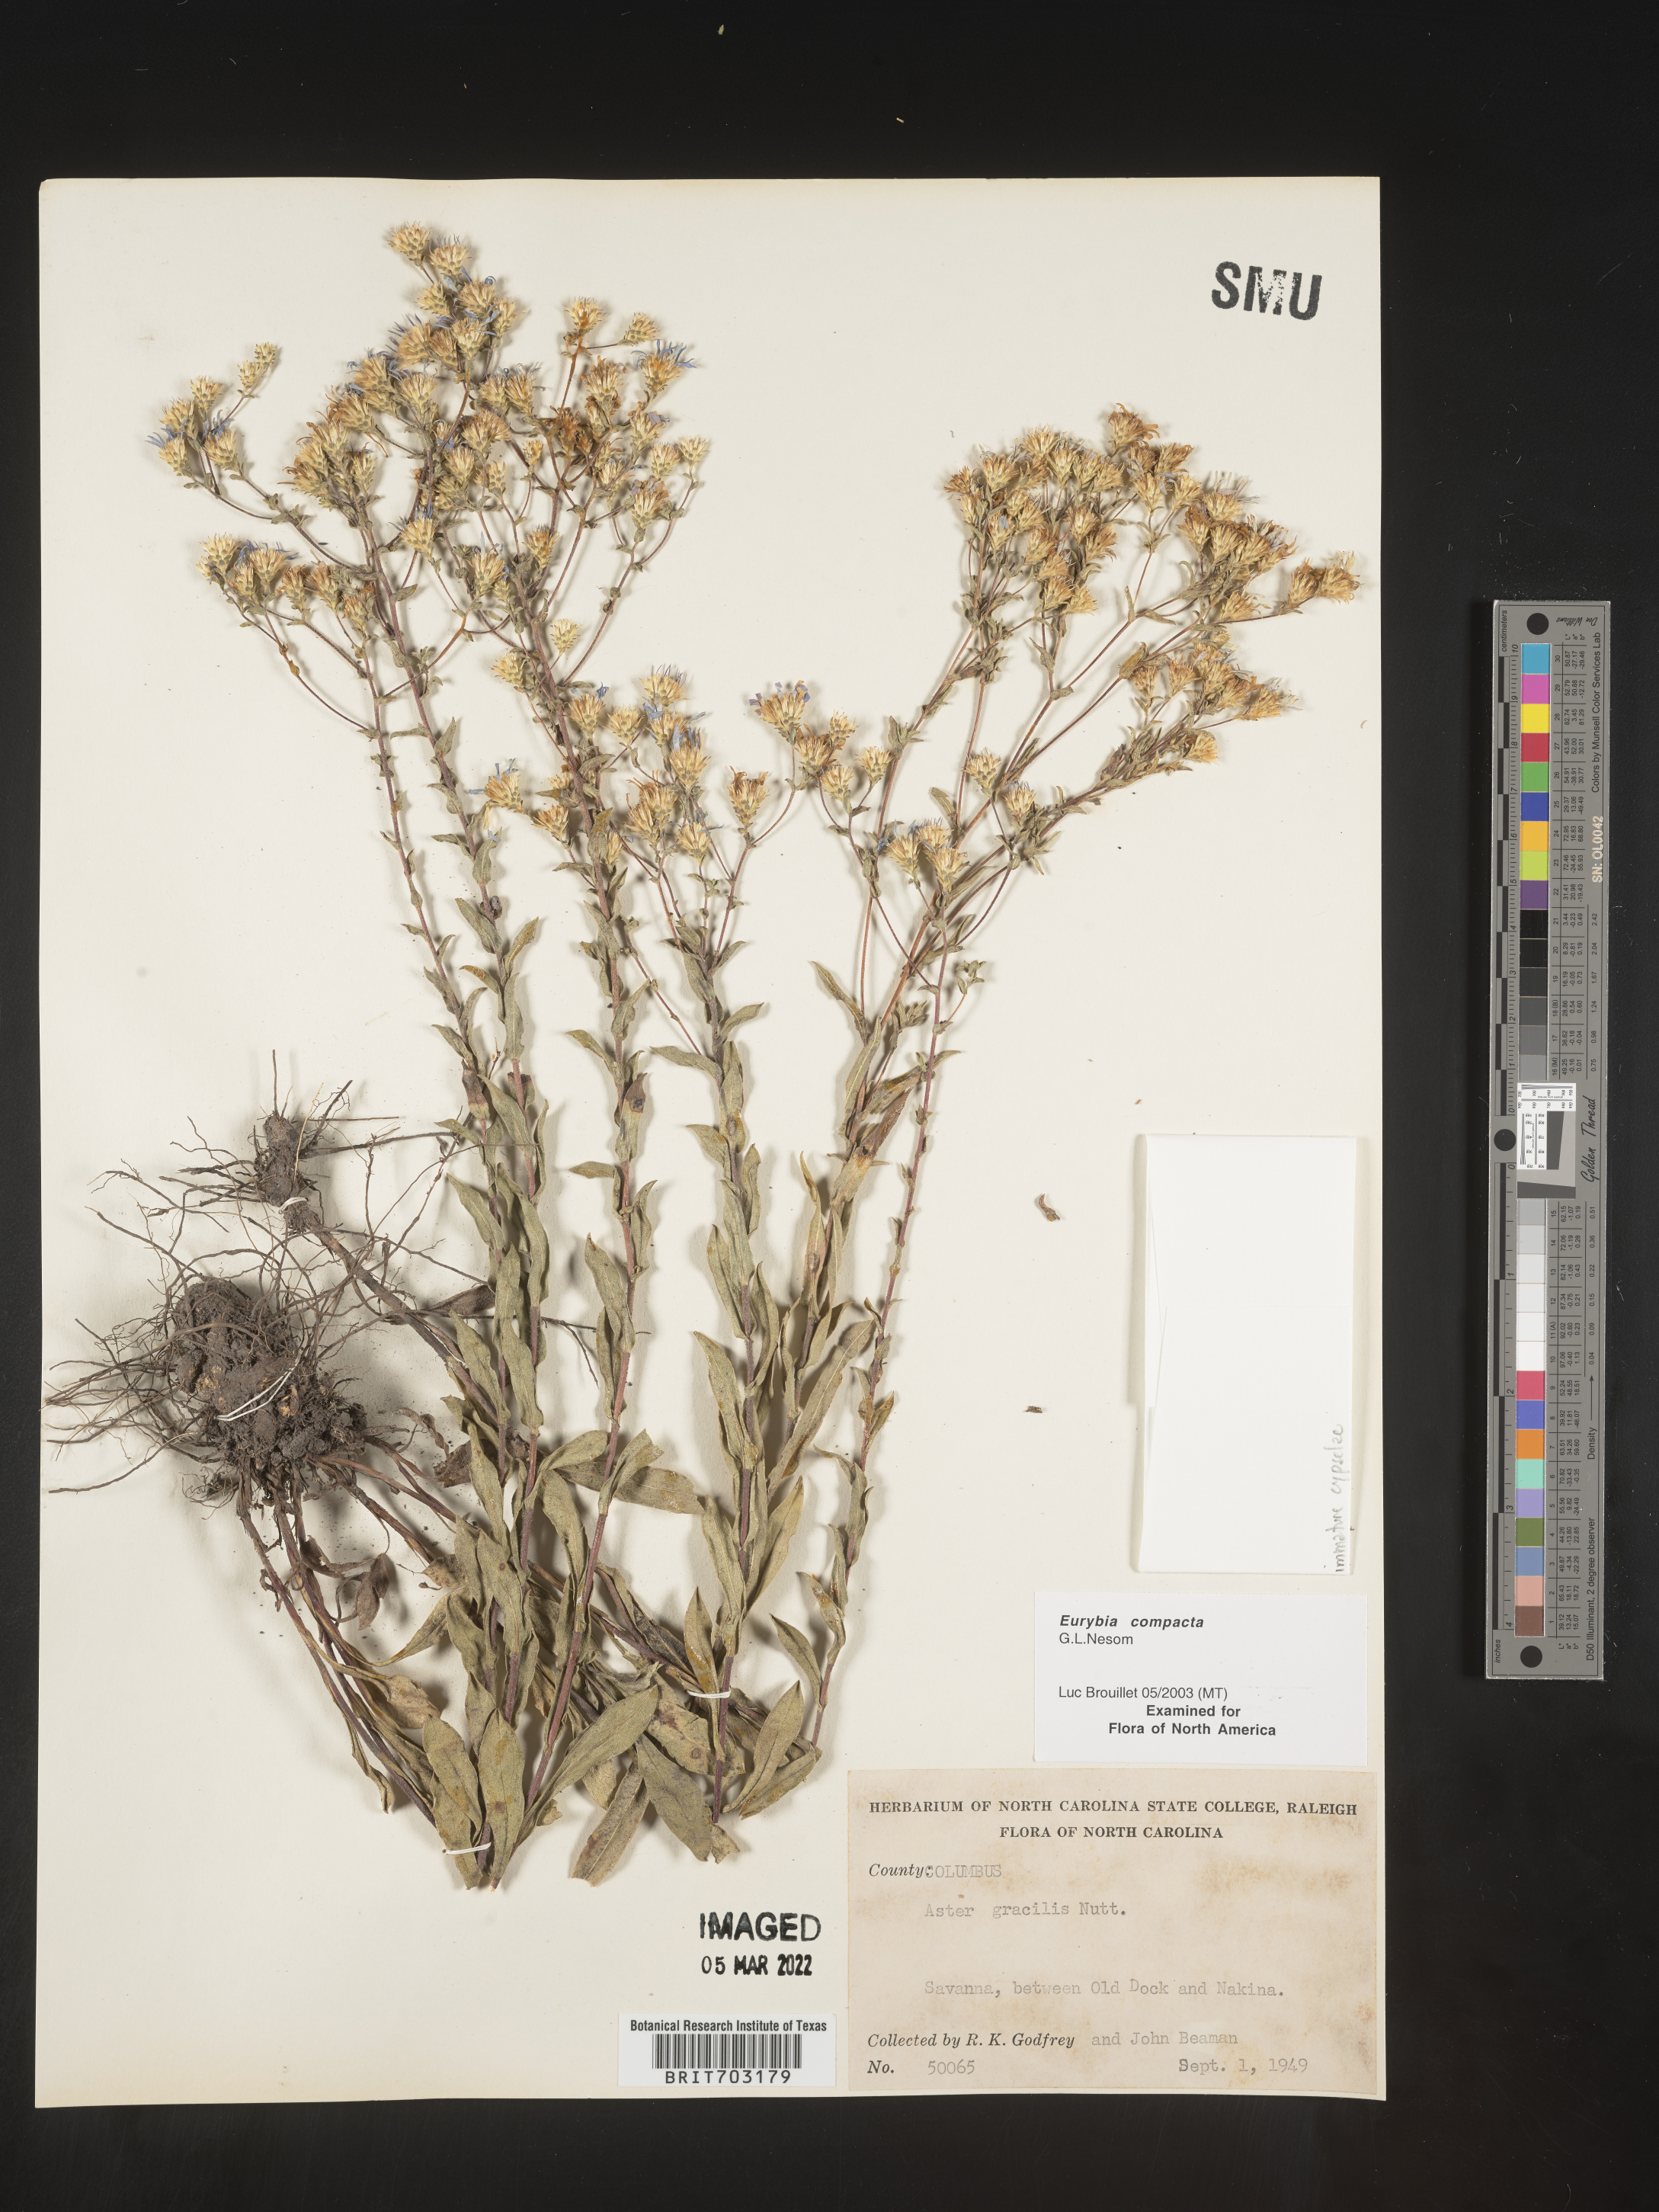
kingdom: Plantae
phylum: Tracheophyta
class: Magnoliopsida
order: Asterales
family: Asteraceae
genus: Eurybia
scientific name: Eurybia compacta
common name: Slender aster
